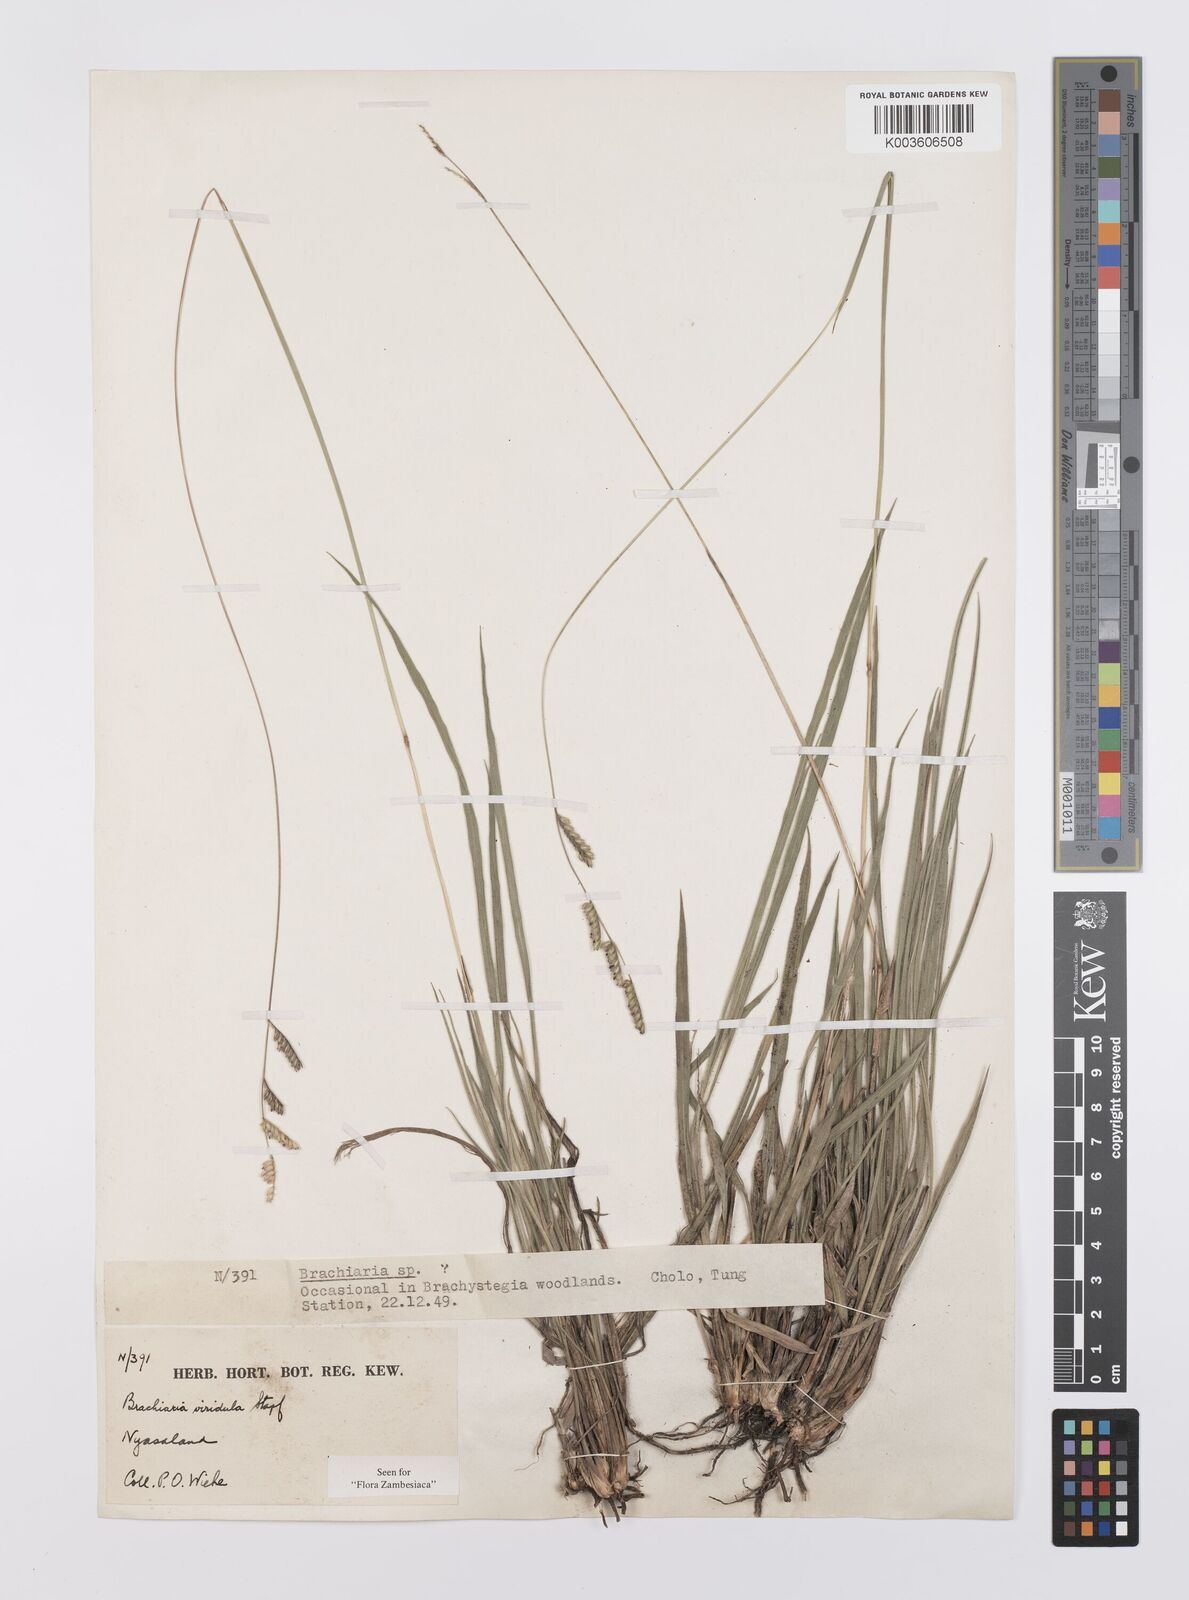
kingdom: Plantae
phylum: Tracheophyta
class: Liliopsida
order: Poales
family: Poaceae
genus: Urochloa
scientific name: Urochloa bovonei
